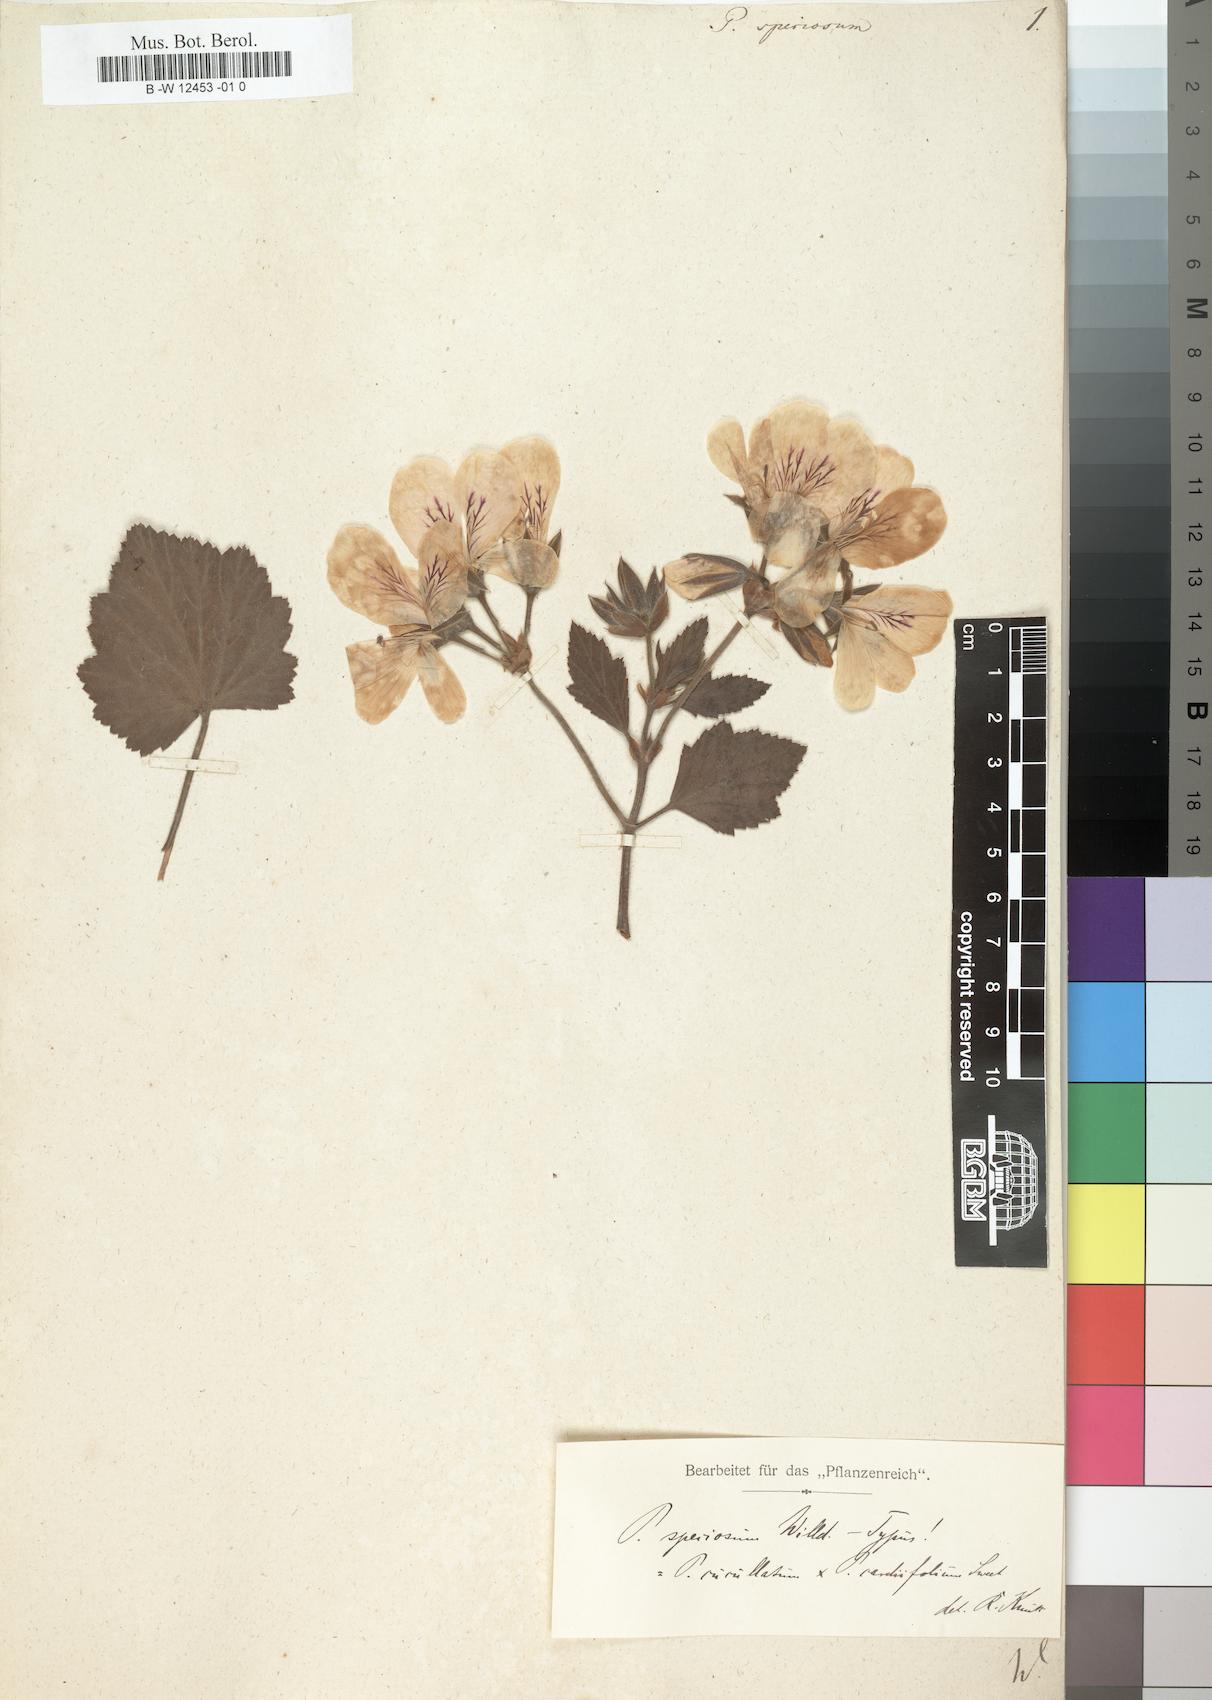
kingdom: Plantae
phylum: Tracheophyta
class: Magnoliopsida
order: Geraniales
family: Geraniaceae
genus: Monsonia
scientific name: Monsonia lheritieri
